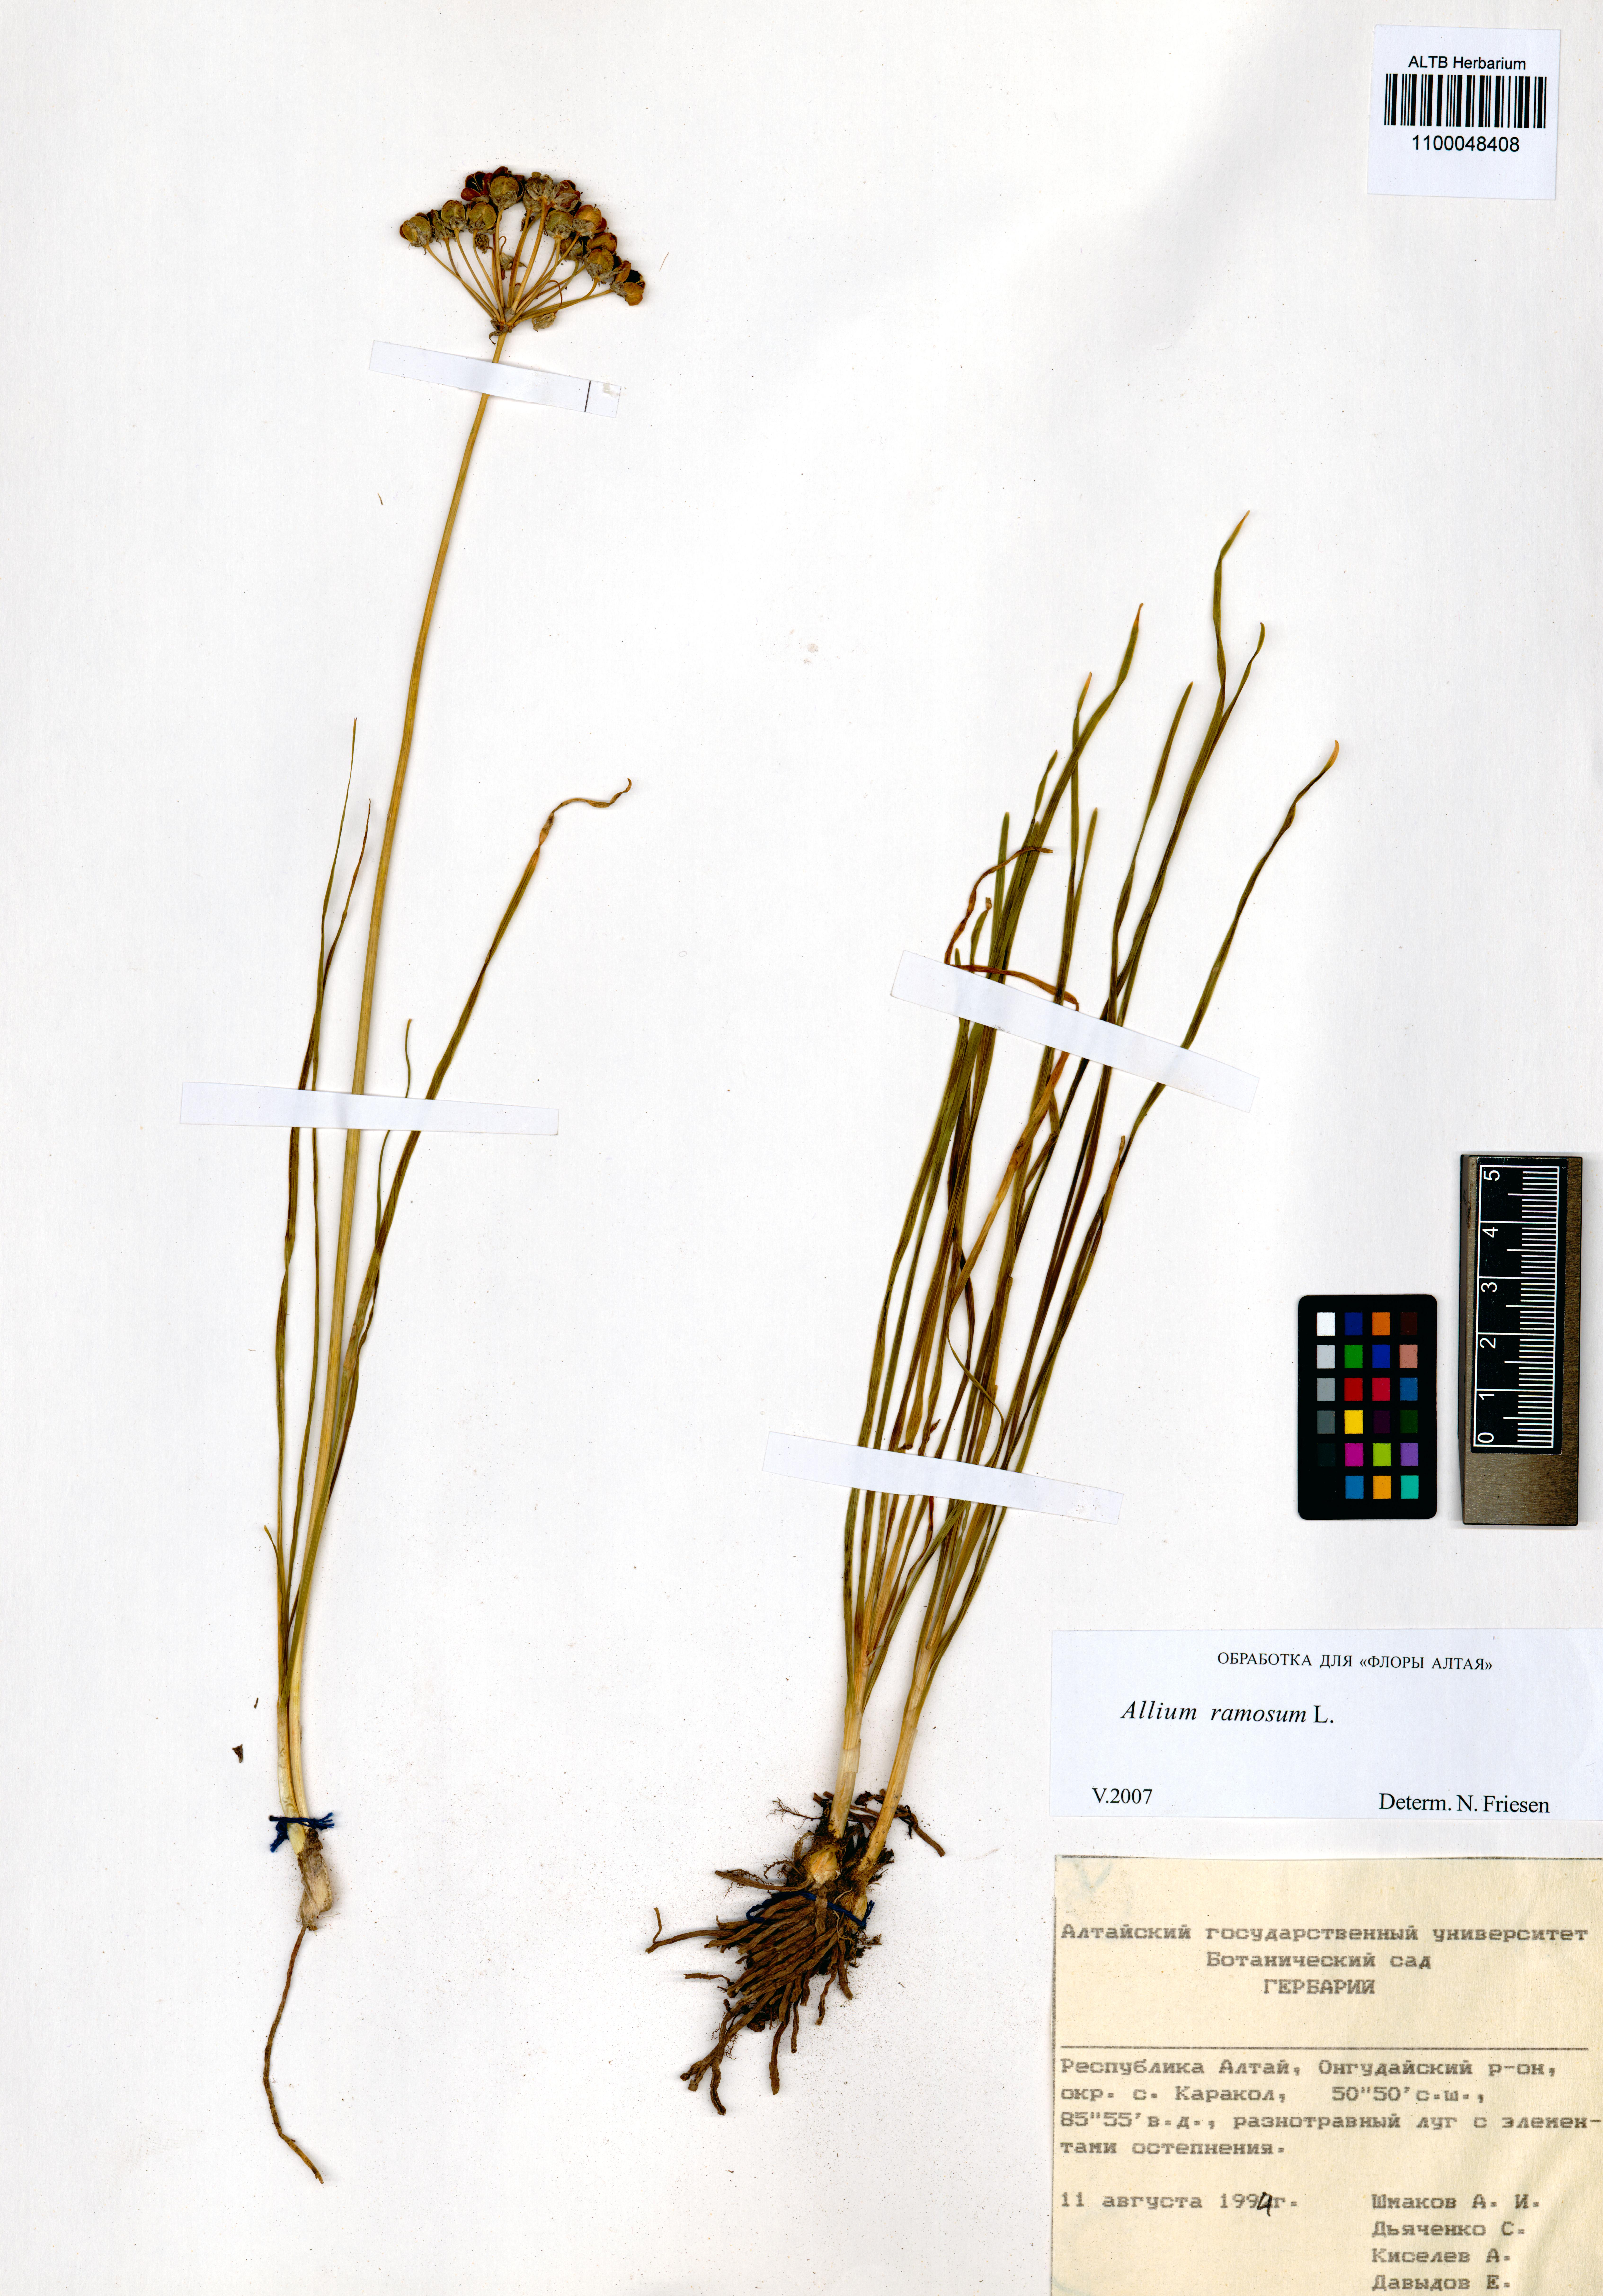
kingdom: Plantae
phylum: Tracheophyta
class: Liliopsida
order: Asparagales
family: Amaryllidaceae
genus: Allium
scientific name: Allium ramosum
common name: Fragrant garlic
